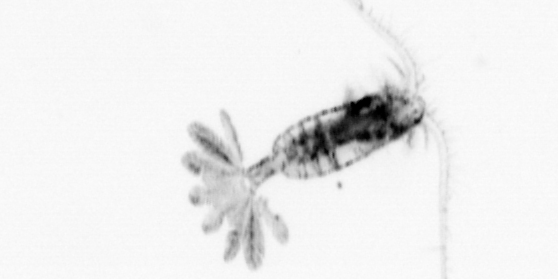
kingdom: Animalia
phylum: Arthropoda
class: Copepoda
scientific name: Copepoda
